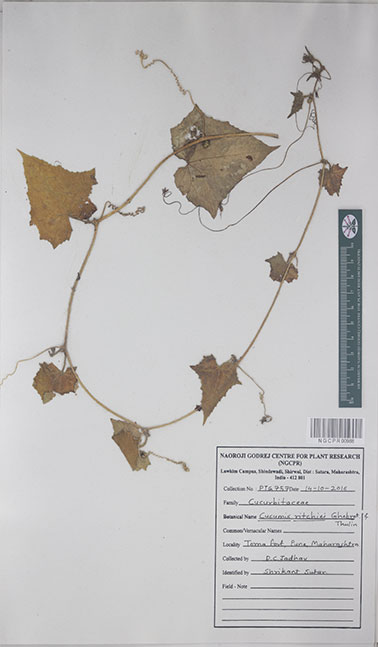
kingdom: Plantae
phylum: Tracheophyta
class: Magnoliopsida
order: Cucurbitales
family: Cucurbitaceae
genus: Cucumis
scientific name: Cucumis ritchiei
